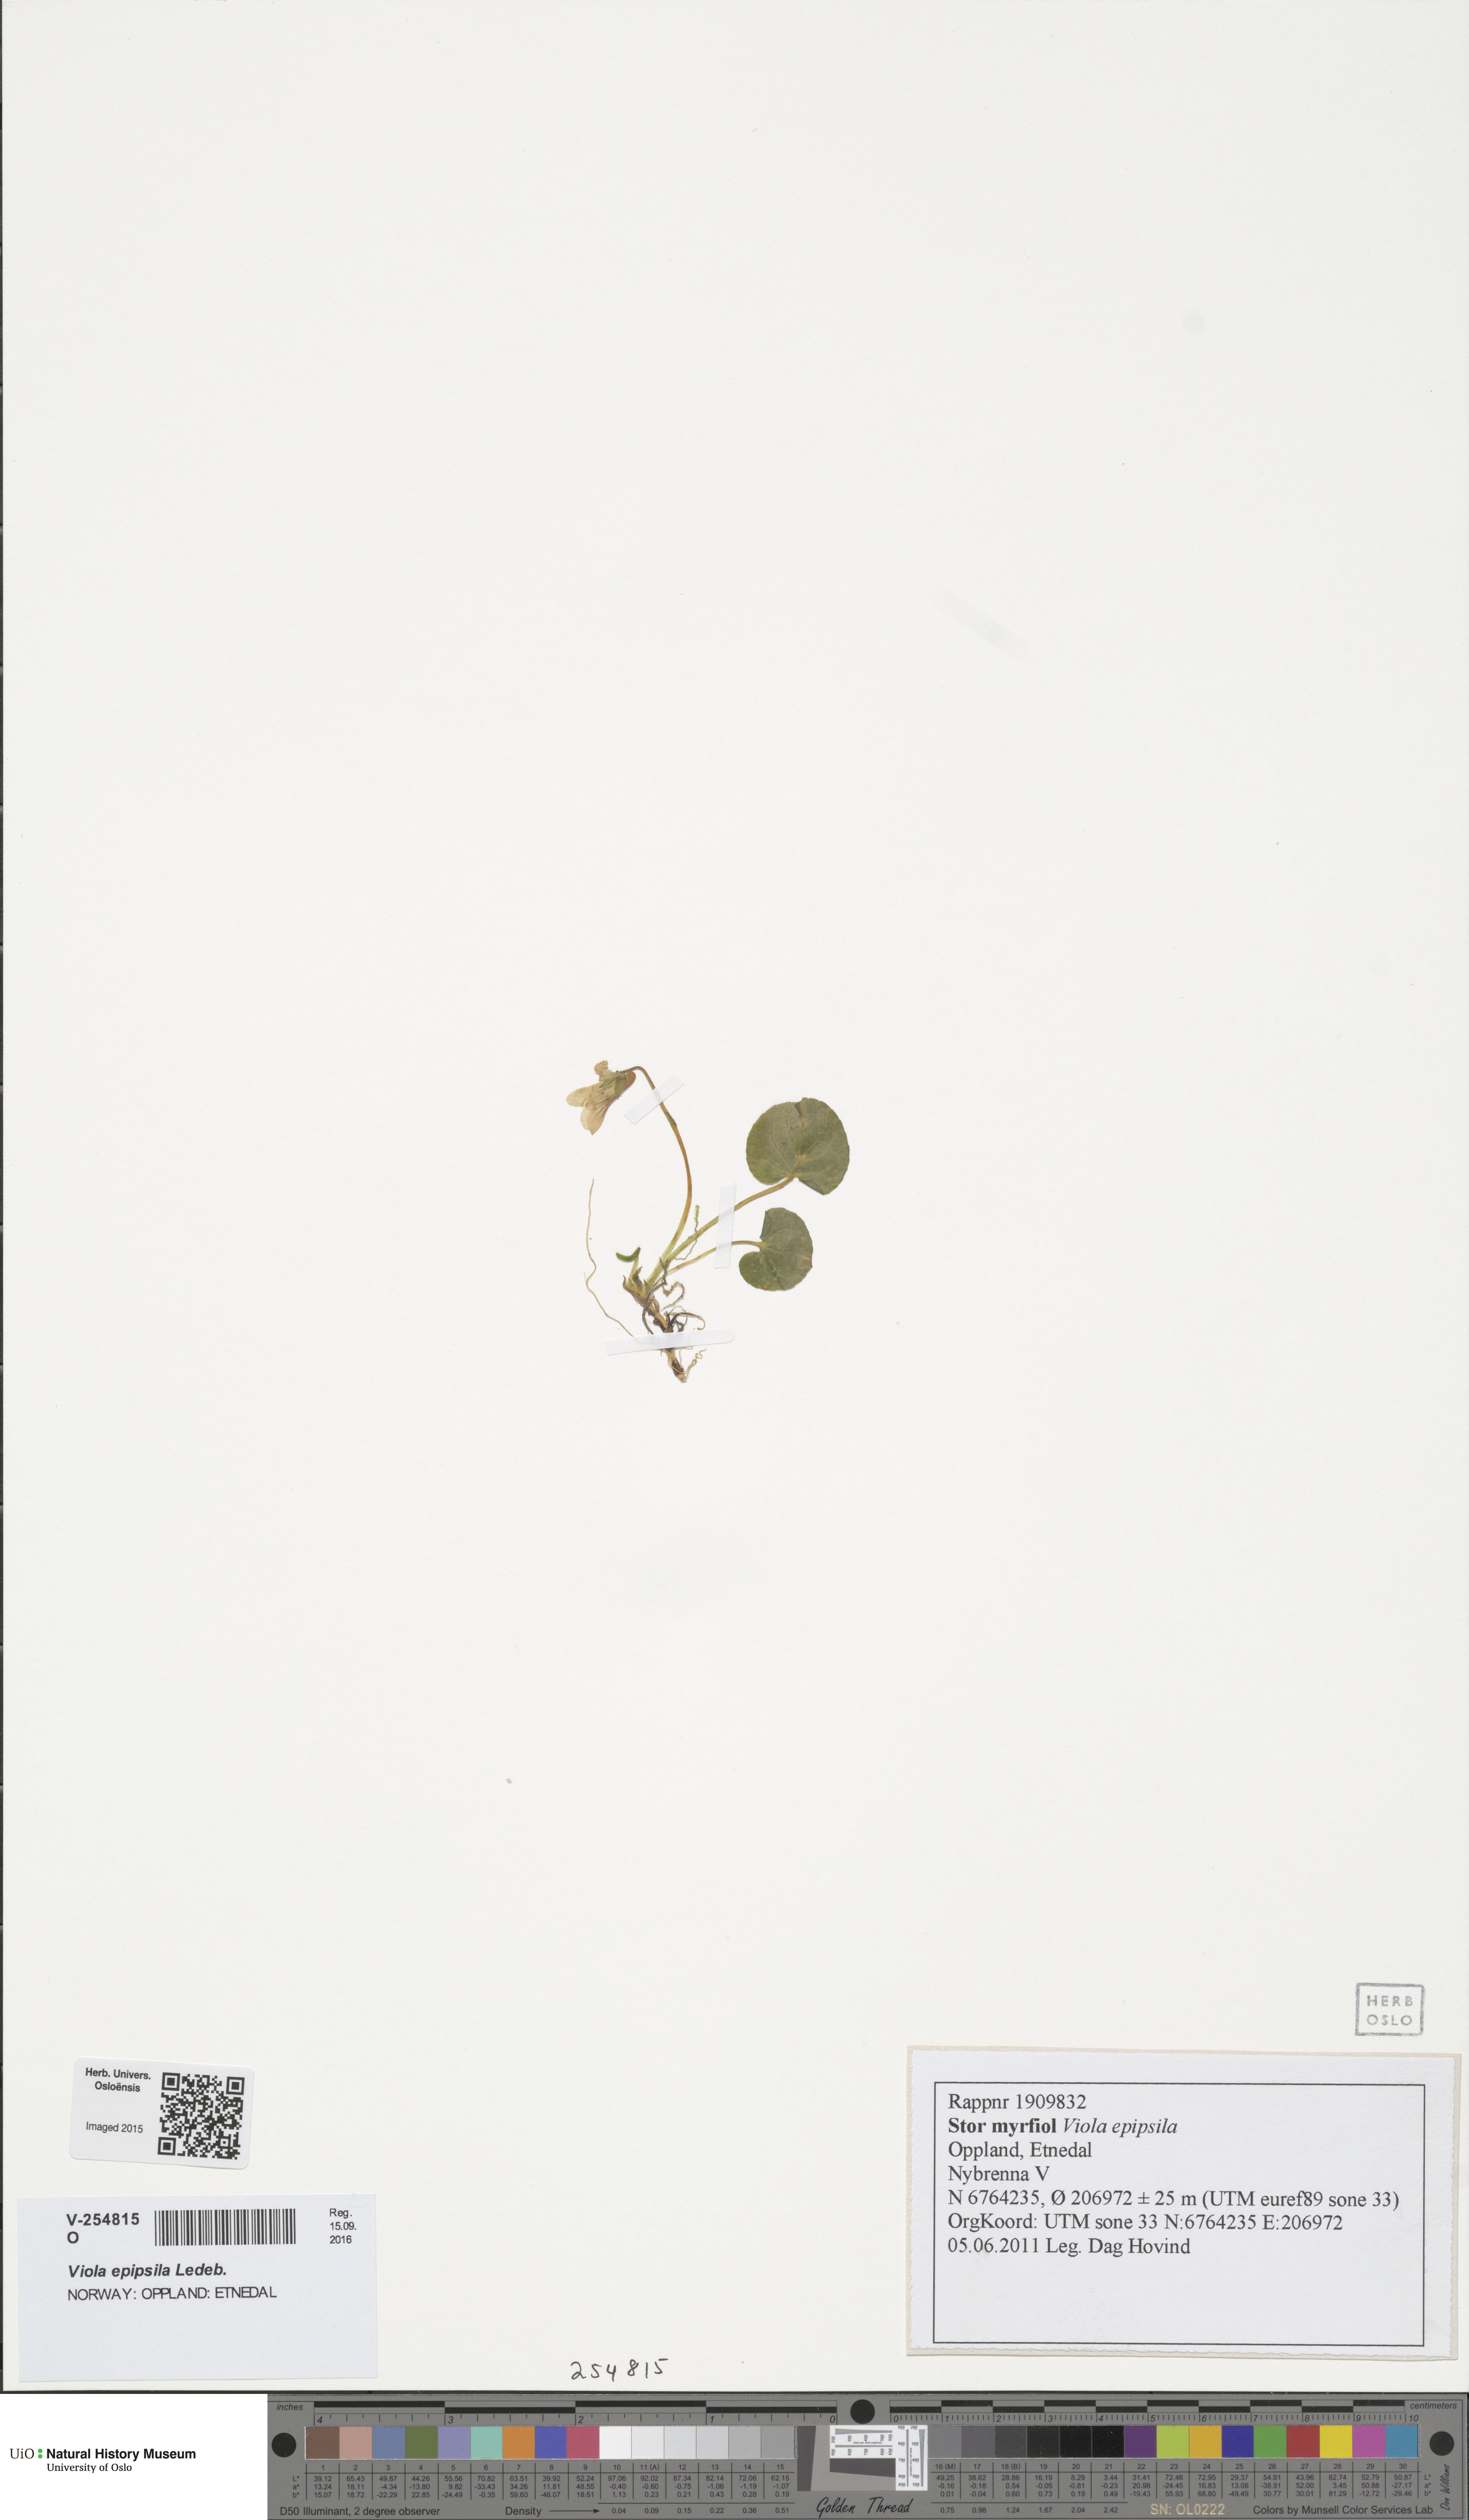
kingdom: Plantae
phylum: Tracheophyta
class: Magnoliopsida
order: Malpighiales
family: Violaceae
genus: Viola
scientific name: Viola epipsila
